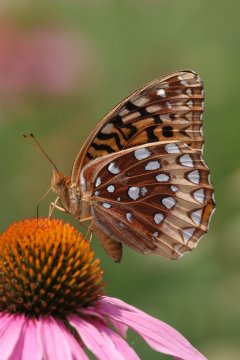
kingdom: Animalia
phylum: Arthropoda
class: Insecta
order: Lepidoptera
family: Nymphalidae
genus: Speyeria
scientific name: Speyeria cybele
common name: Great Spangled Fritillary
